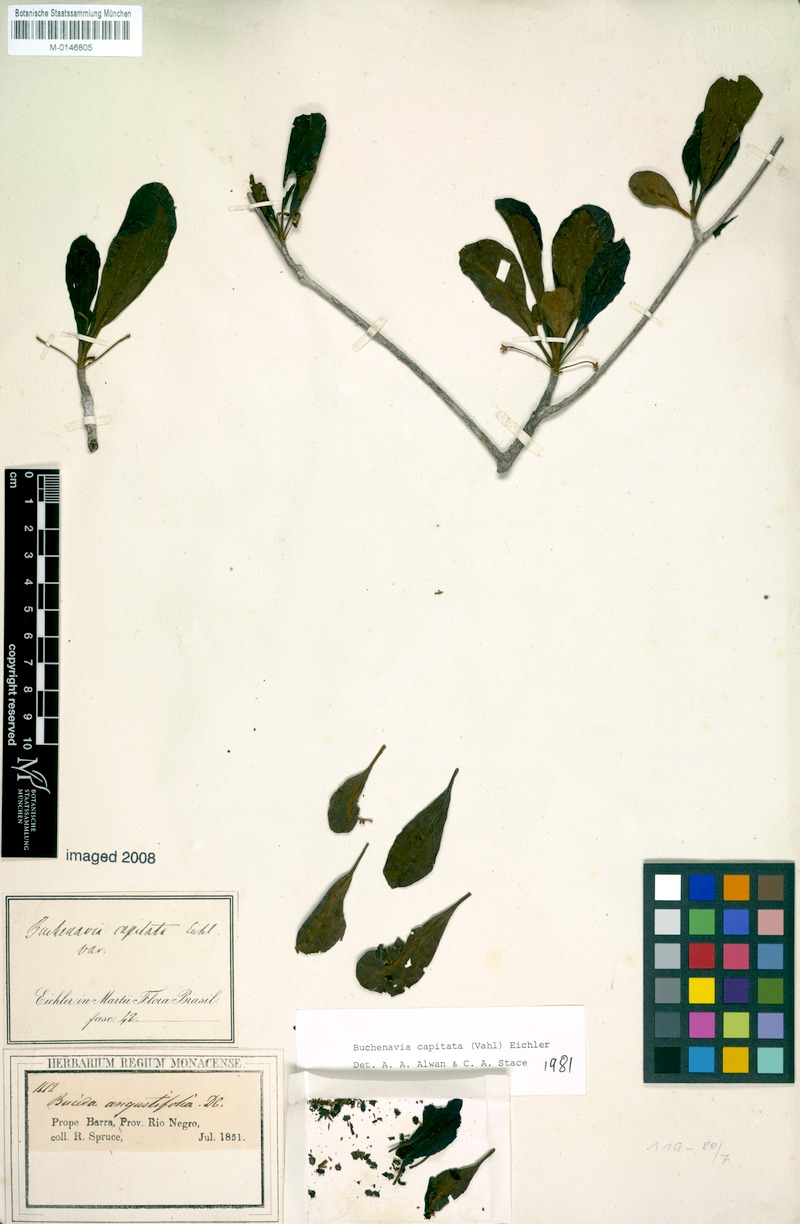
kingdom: Plantae
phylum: Tracheophyta
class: Magnoliopsida
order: Myrtales
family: Combretaceae
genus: Terminalia
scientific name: Terminalia tetraphylla
